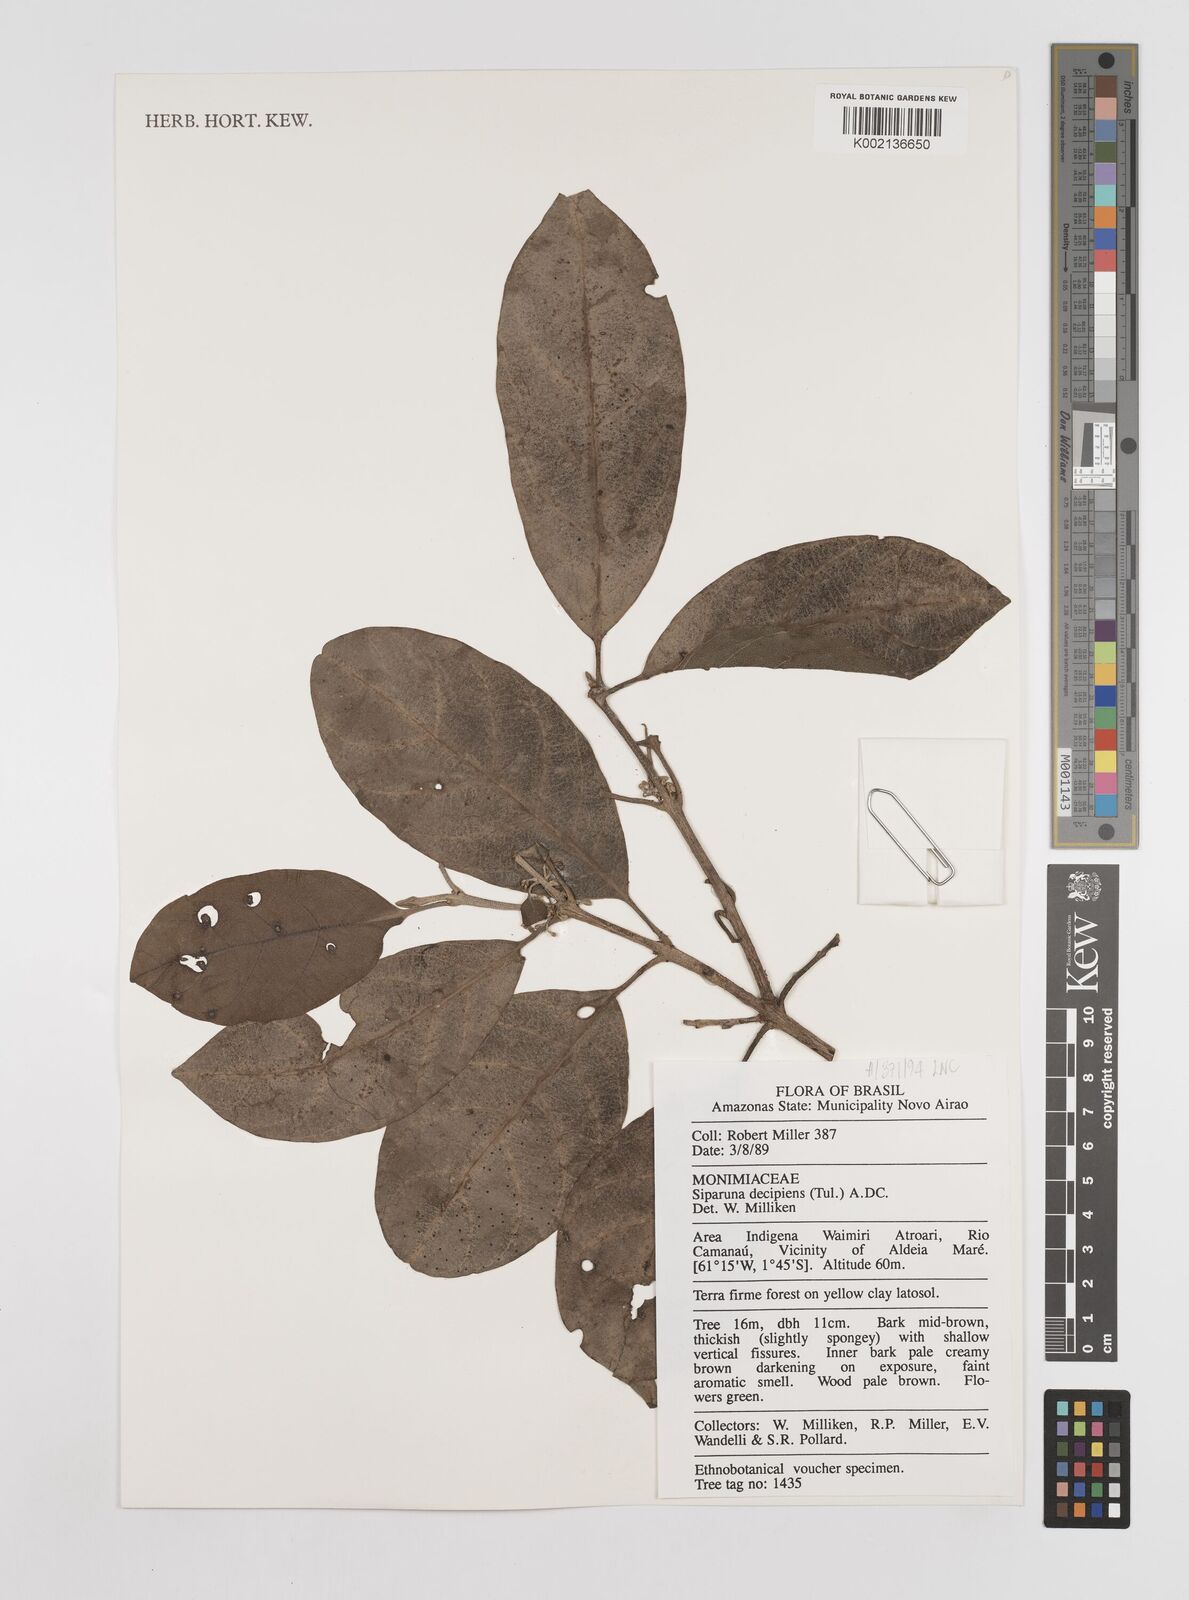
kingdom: Plantae
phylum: Tracheophyta
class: Magnoliopsida
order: Laurales
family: Siparunaceae
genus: Siparuna
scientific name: Siparuna decipiens
